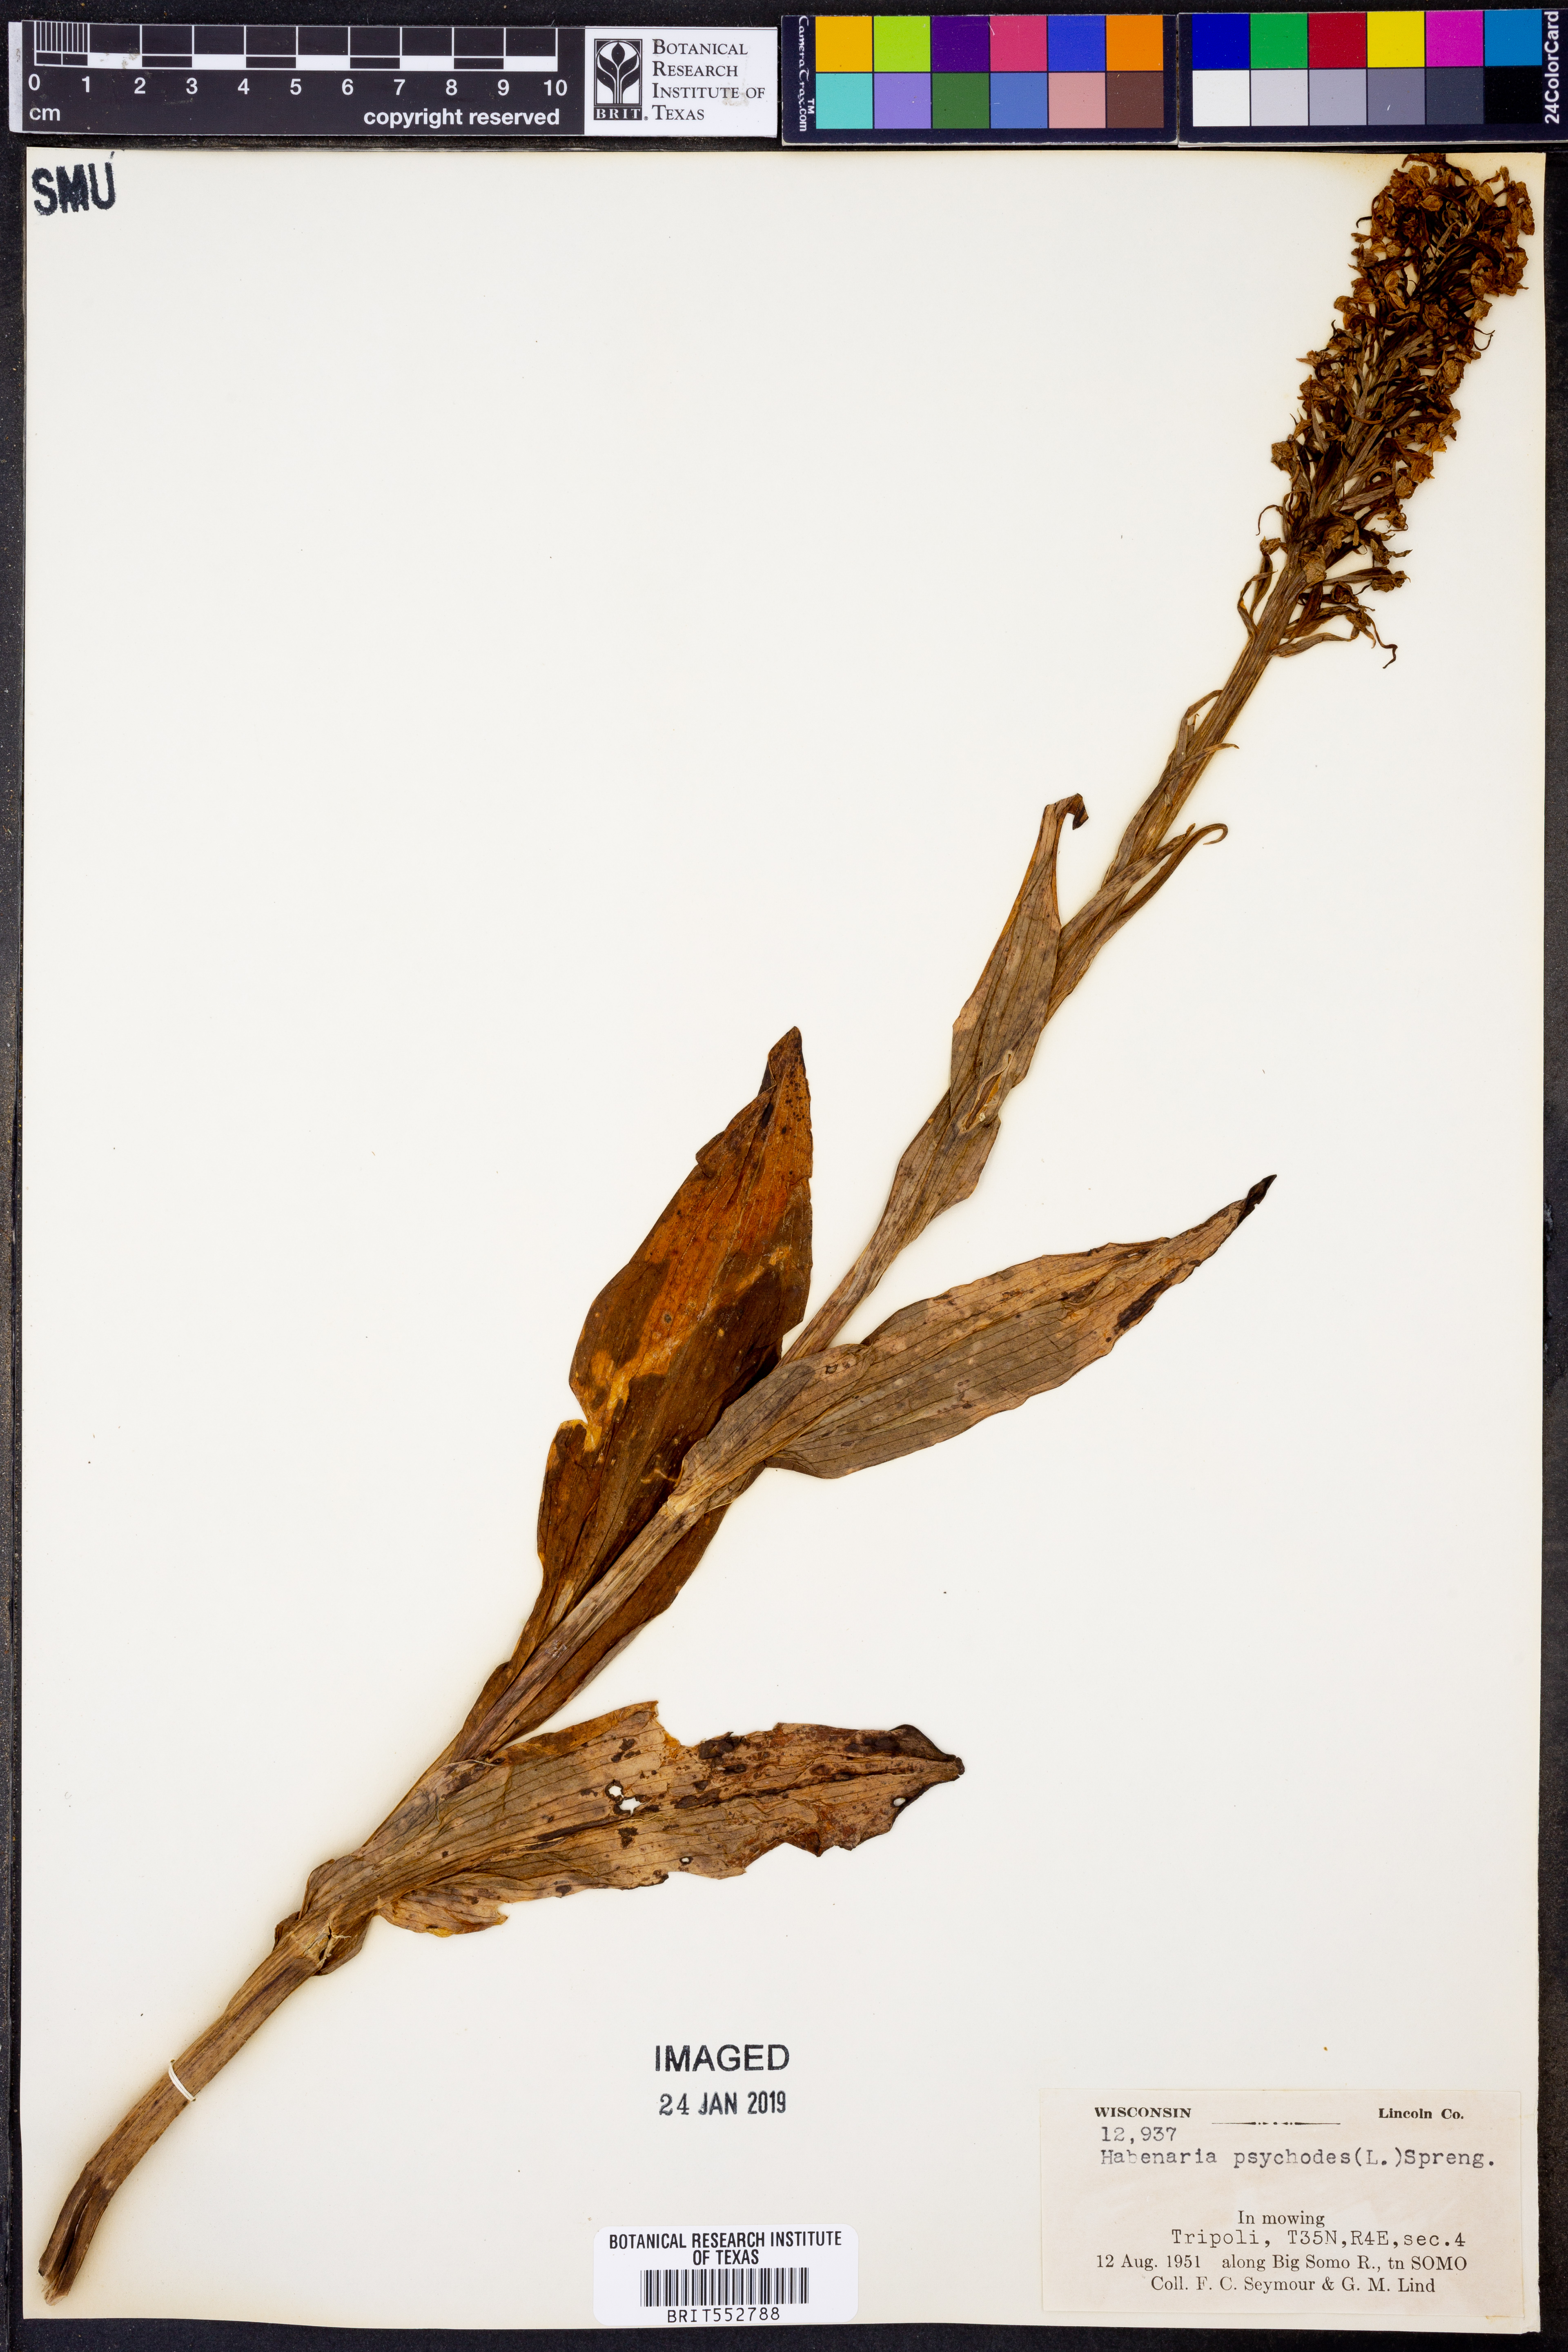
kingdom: Plantae
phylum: Tracheophyta
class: Liliopsida
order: Asparagales
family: Orchidaceae
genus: Platanthera
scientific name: Platanthera psycodes
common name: Lesser purple fringed orchid
